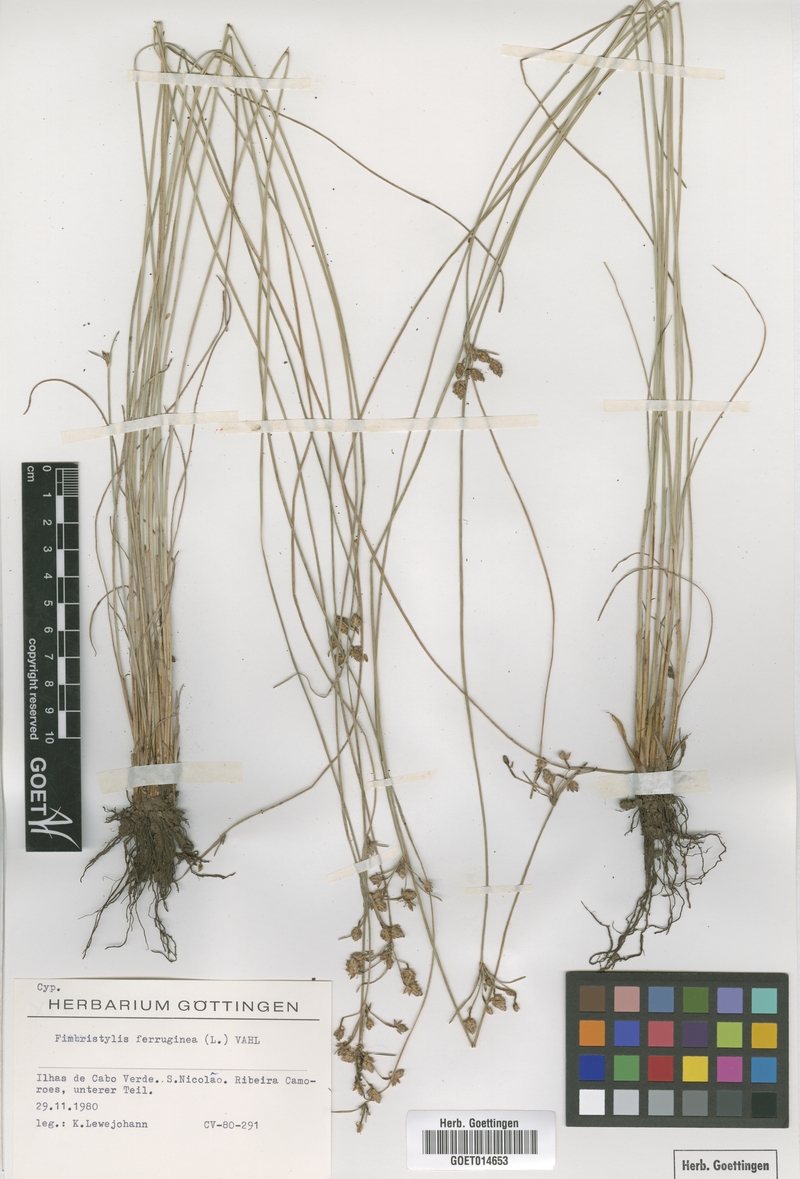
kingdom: Plantae
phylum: Tracheophyta
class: Liliopsida
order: Poales
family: Cyperaceae
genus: Fimbristylis
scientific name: Fimbristylis ferruginea
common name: West indian fimbry
